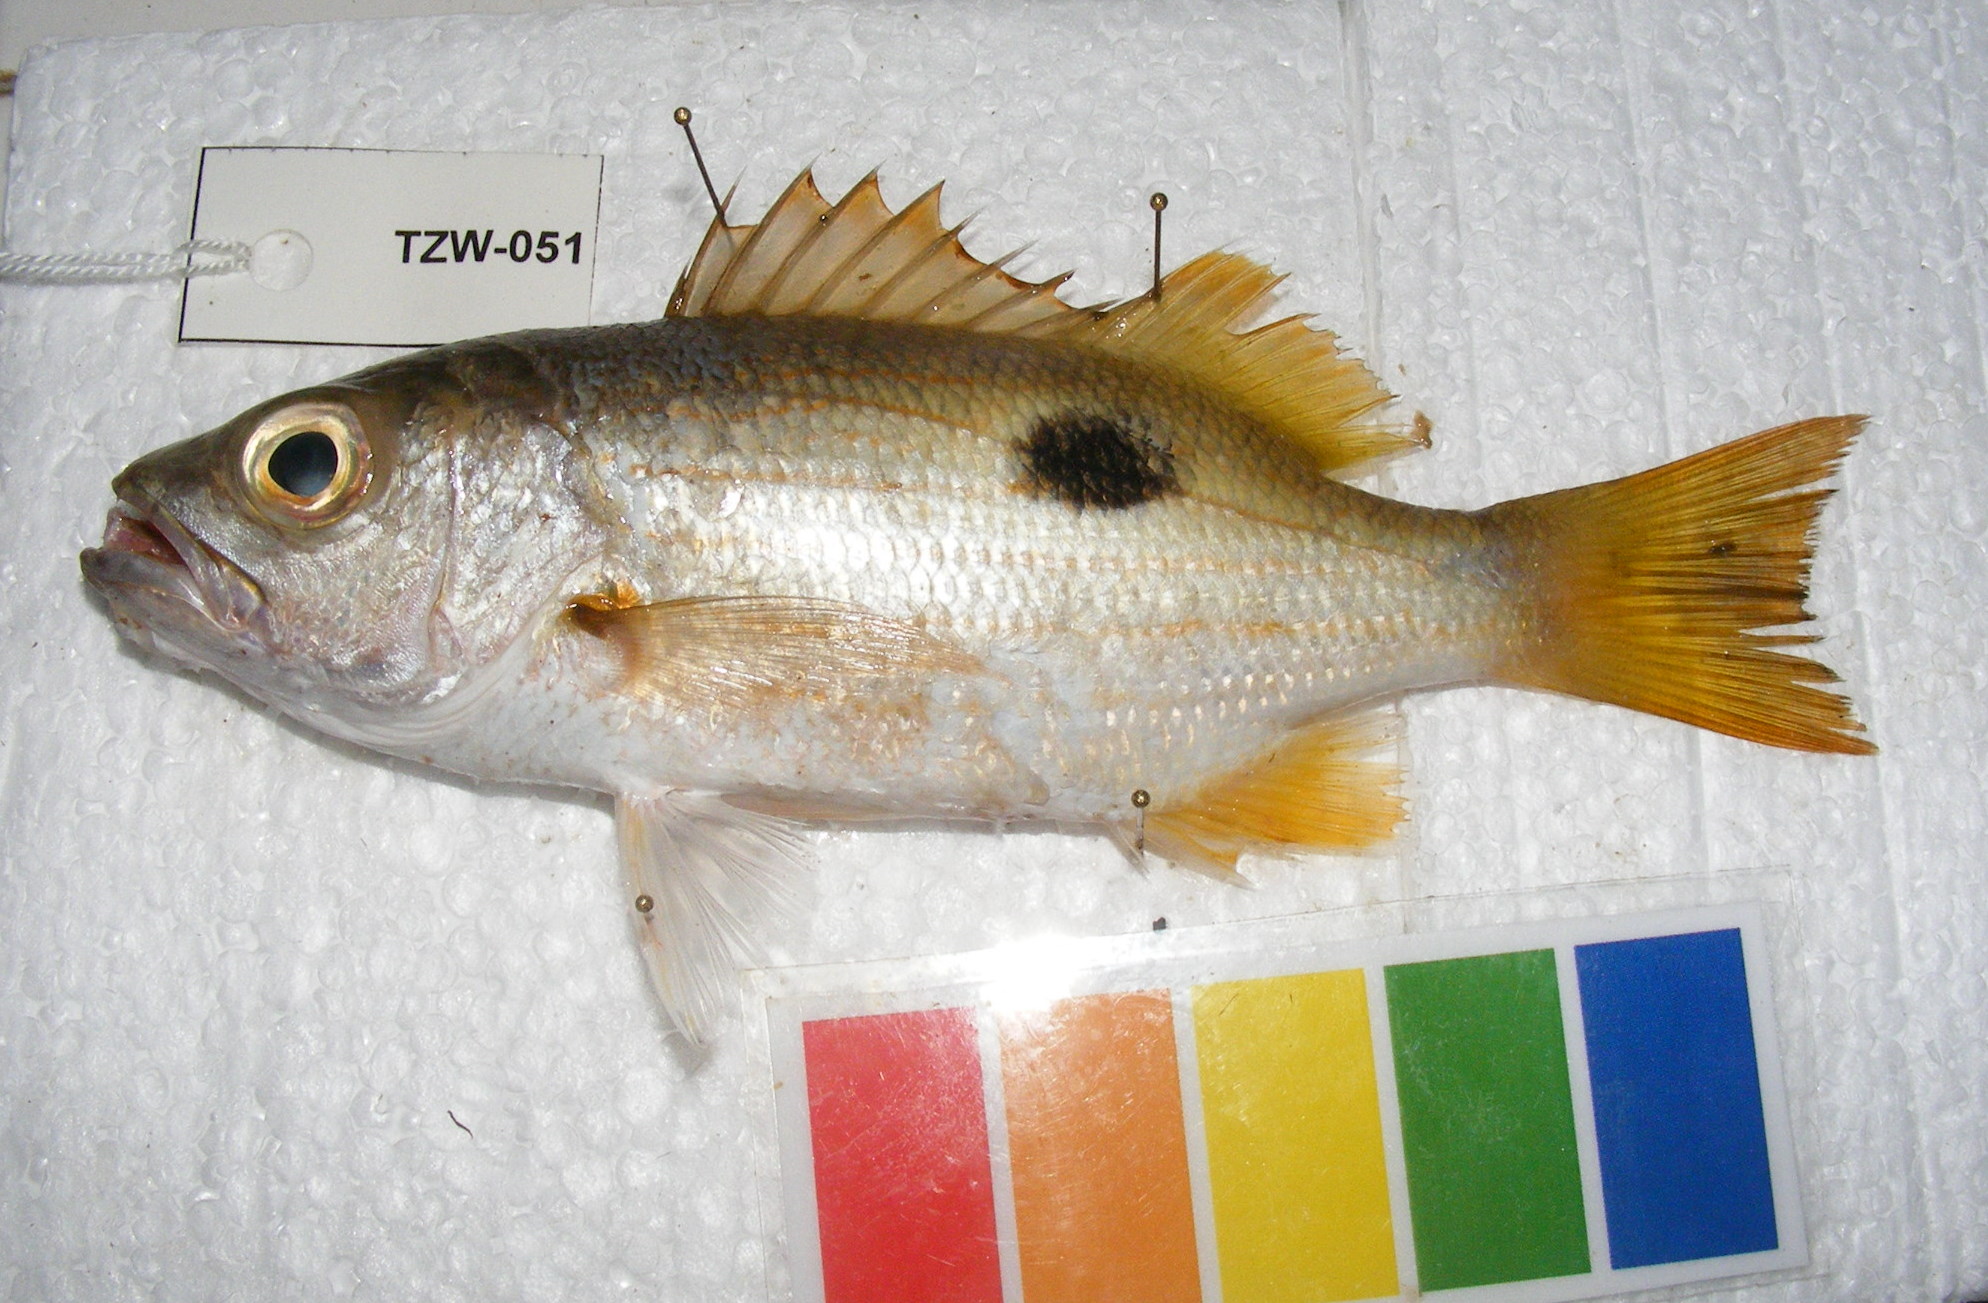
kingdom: Animalia
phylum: Chordata
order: Perciformes
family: Lutjanidae
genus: Lutjanus
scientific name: Lutjanus ehrenbergii
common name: Blackspot snapper
